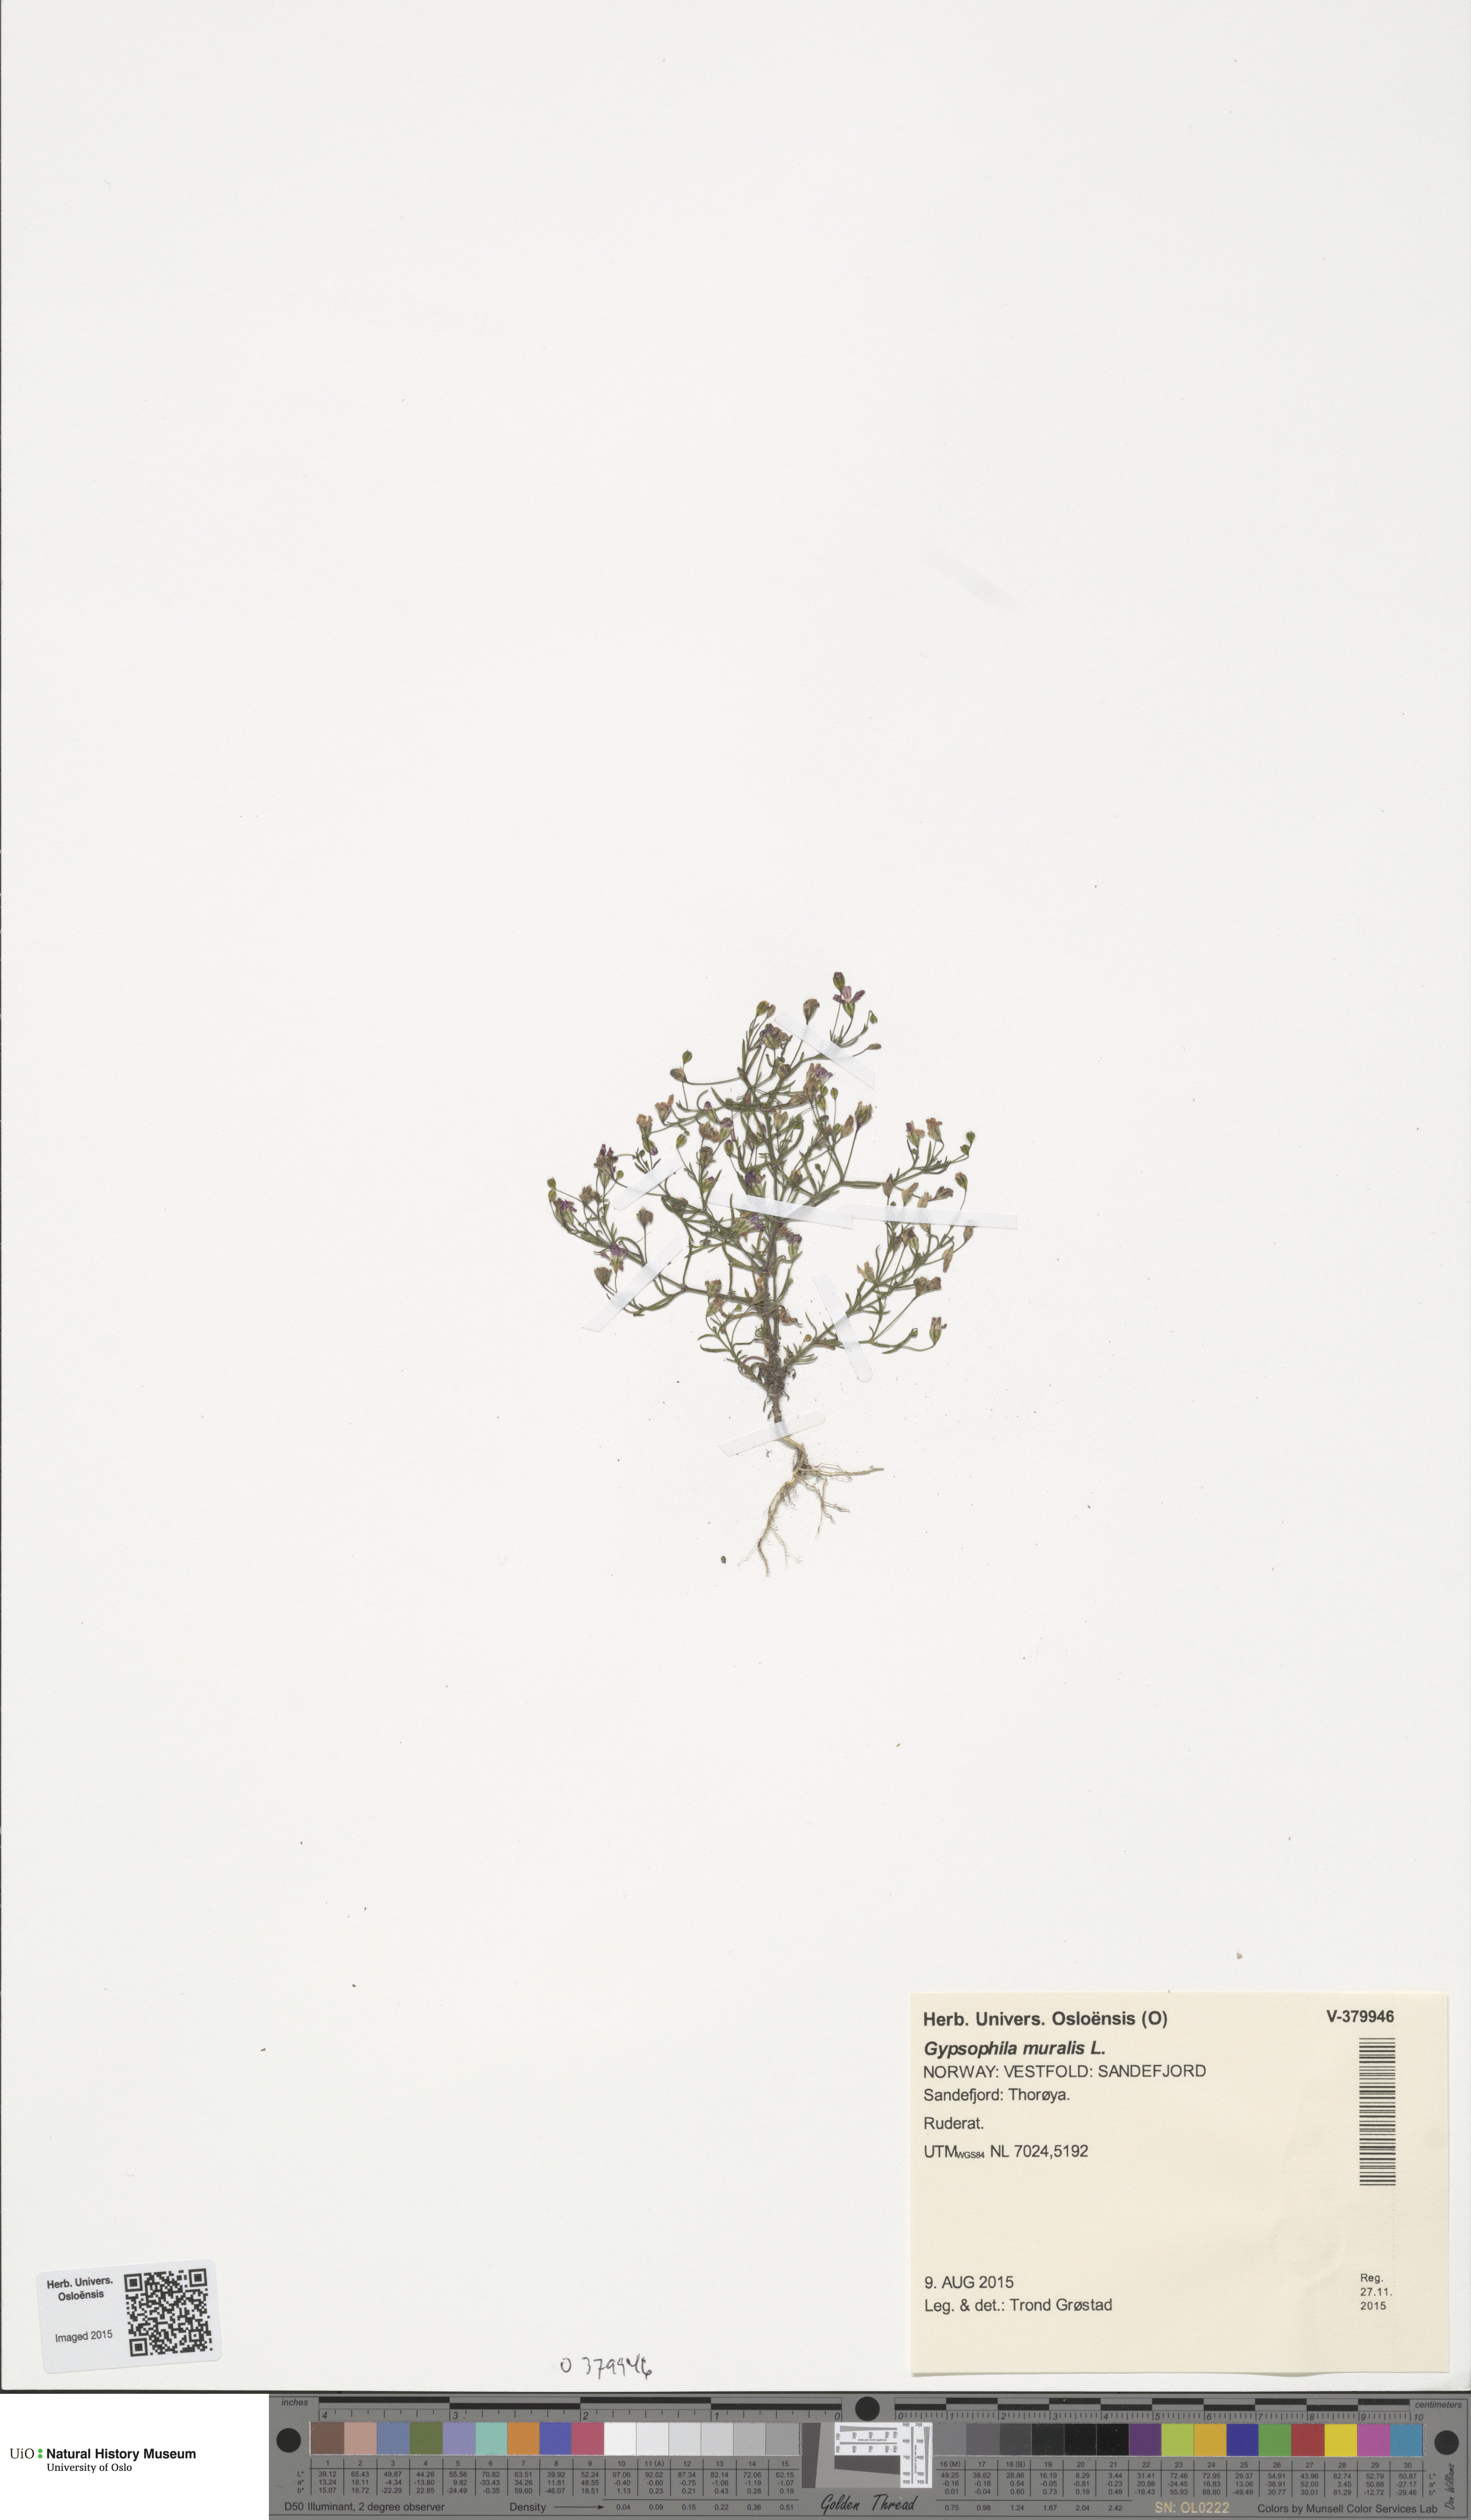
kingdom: Plantae
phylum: Tracheophyta
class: Magnoliopsida
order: Caryophyllales
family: Caryophyllaceae
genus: Psammophiliella
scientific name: Psammophiliella muralis
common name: Cushion baby's-breath
